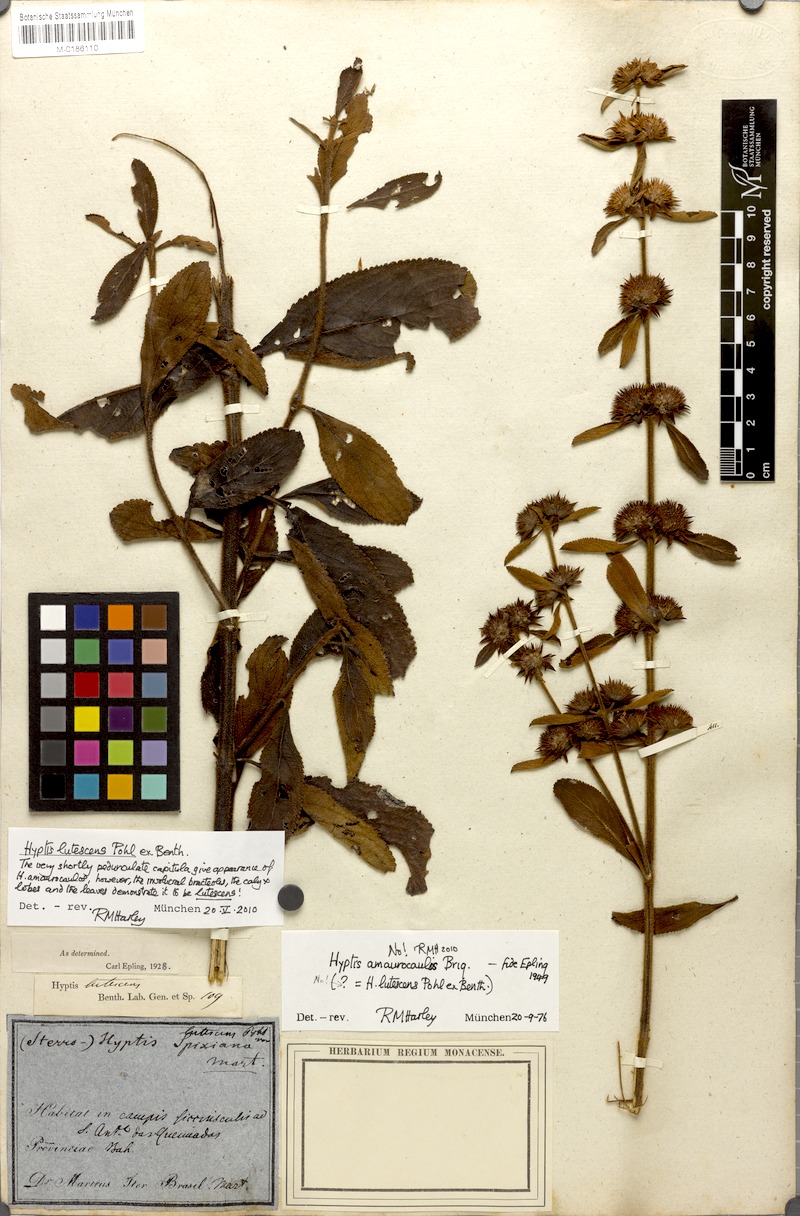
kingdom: Plantae
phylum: Tracheophyta
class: Magnoliopsida
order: Lamiales
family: Lamiaceae
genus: Hyptis
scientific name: Hyptis lutescens
